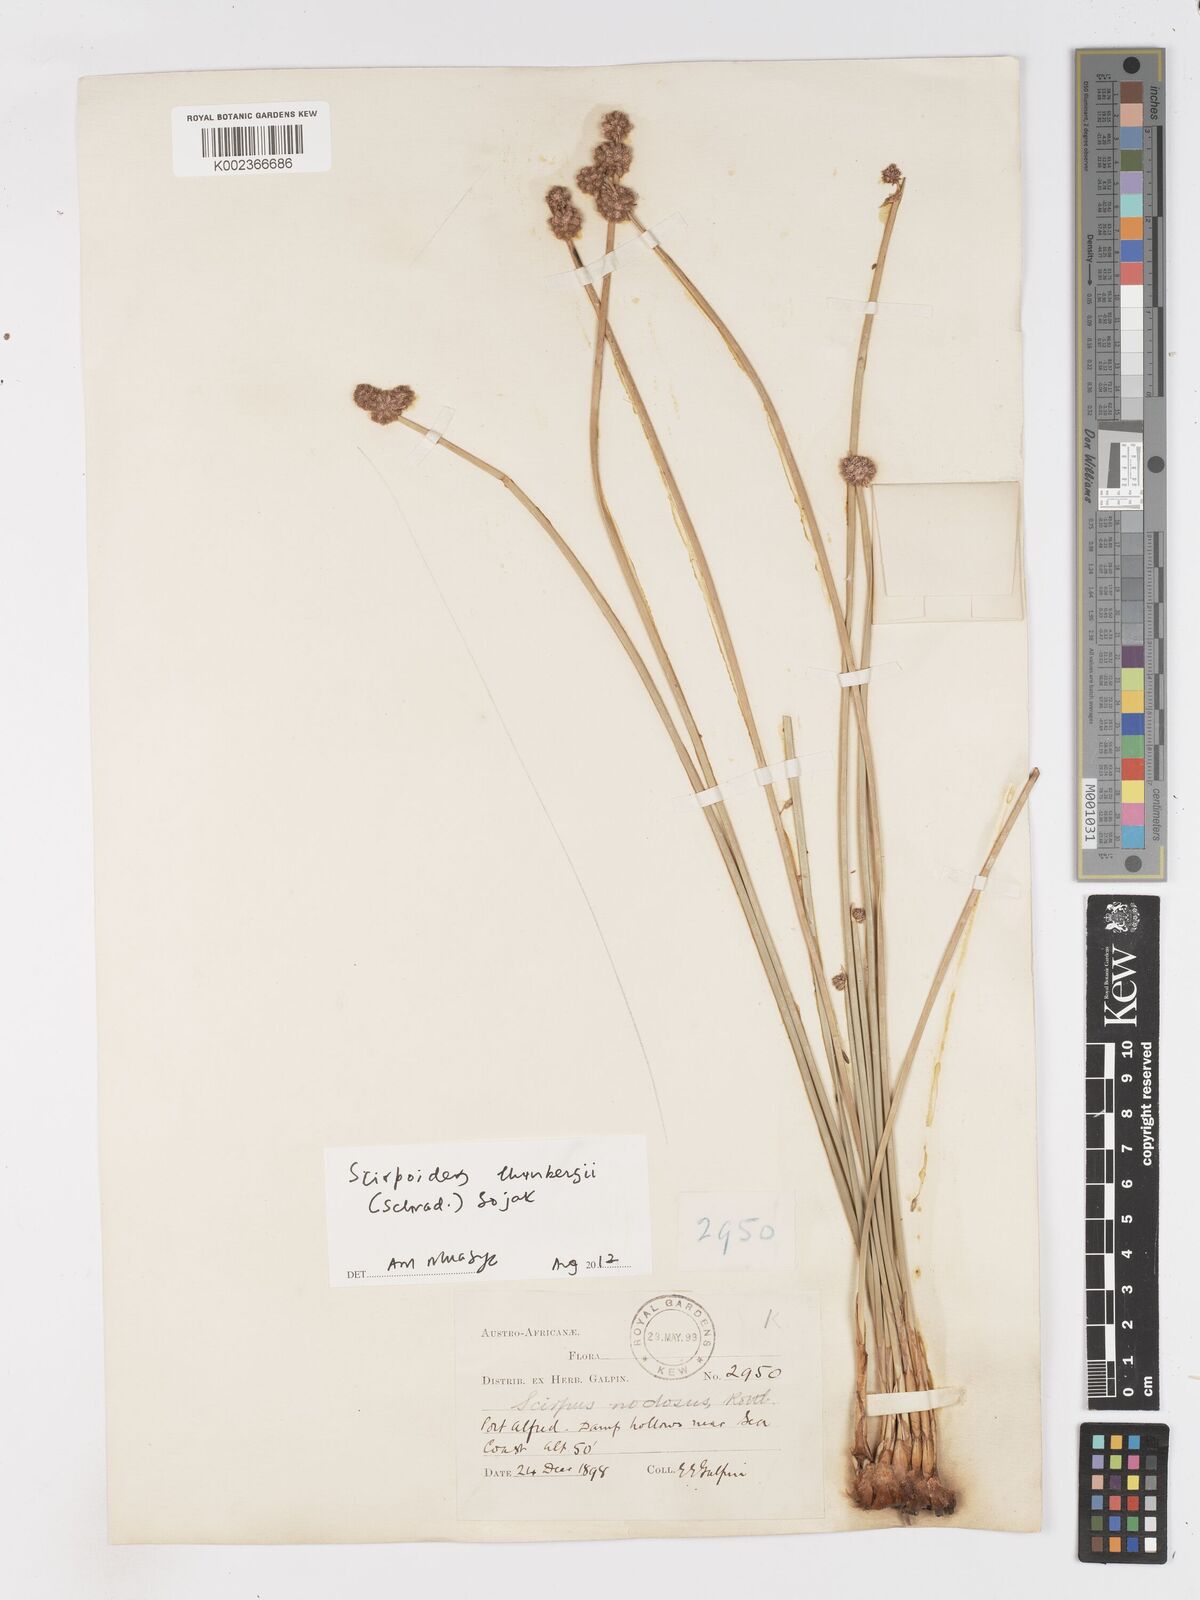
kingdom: Plantae
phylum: Tracheophyta
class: Liliopsida
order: Poales
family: Cyperaceae
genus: Scirpoides
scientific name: Scirpoides holoschoenus
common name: Round-headed club-rush
